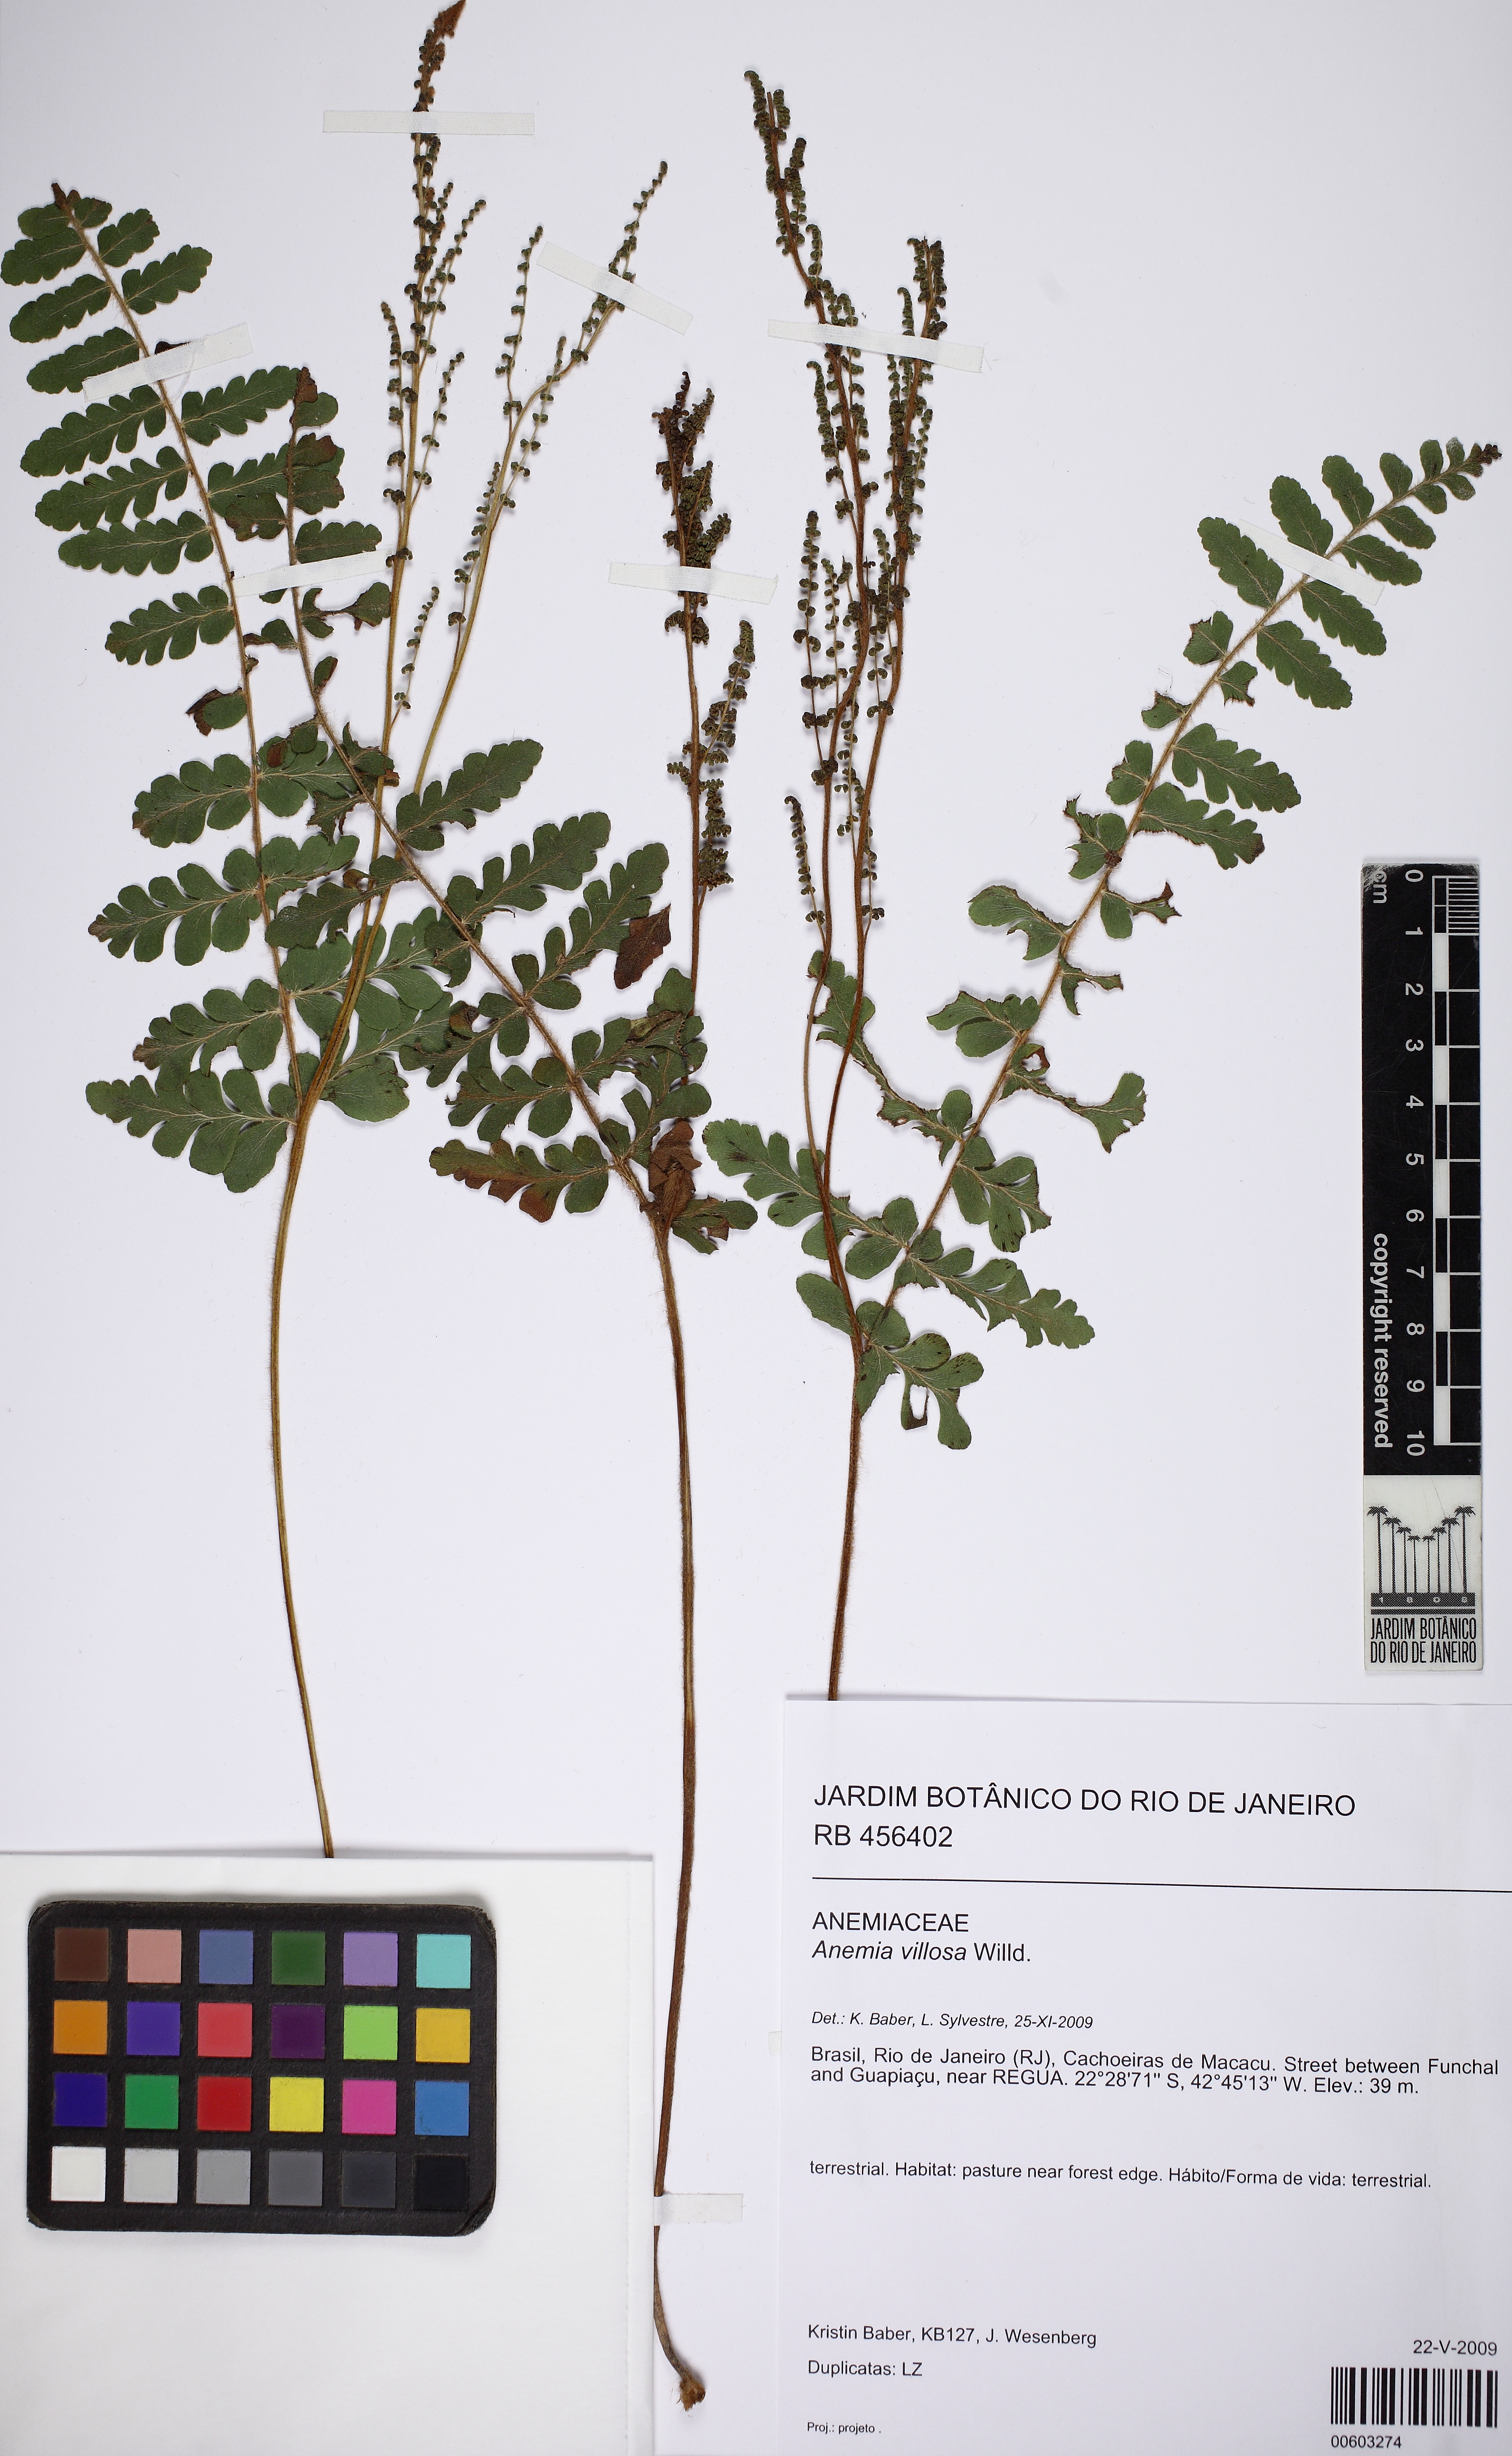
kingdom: Plantae
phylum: Tracheophyta
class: Polypodiopsida
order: Schizaeales
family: Anemiaceae
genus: Anemia
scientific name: Anemia villosa
